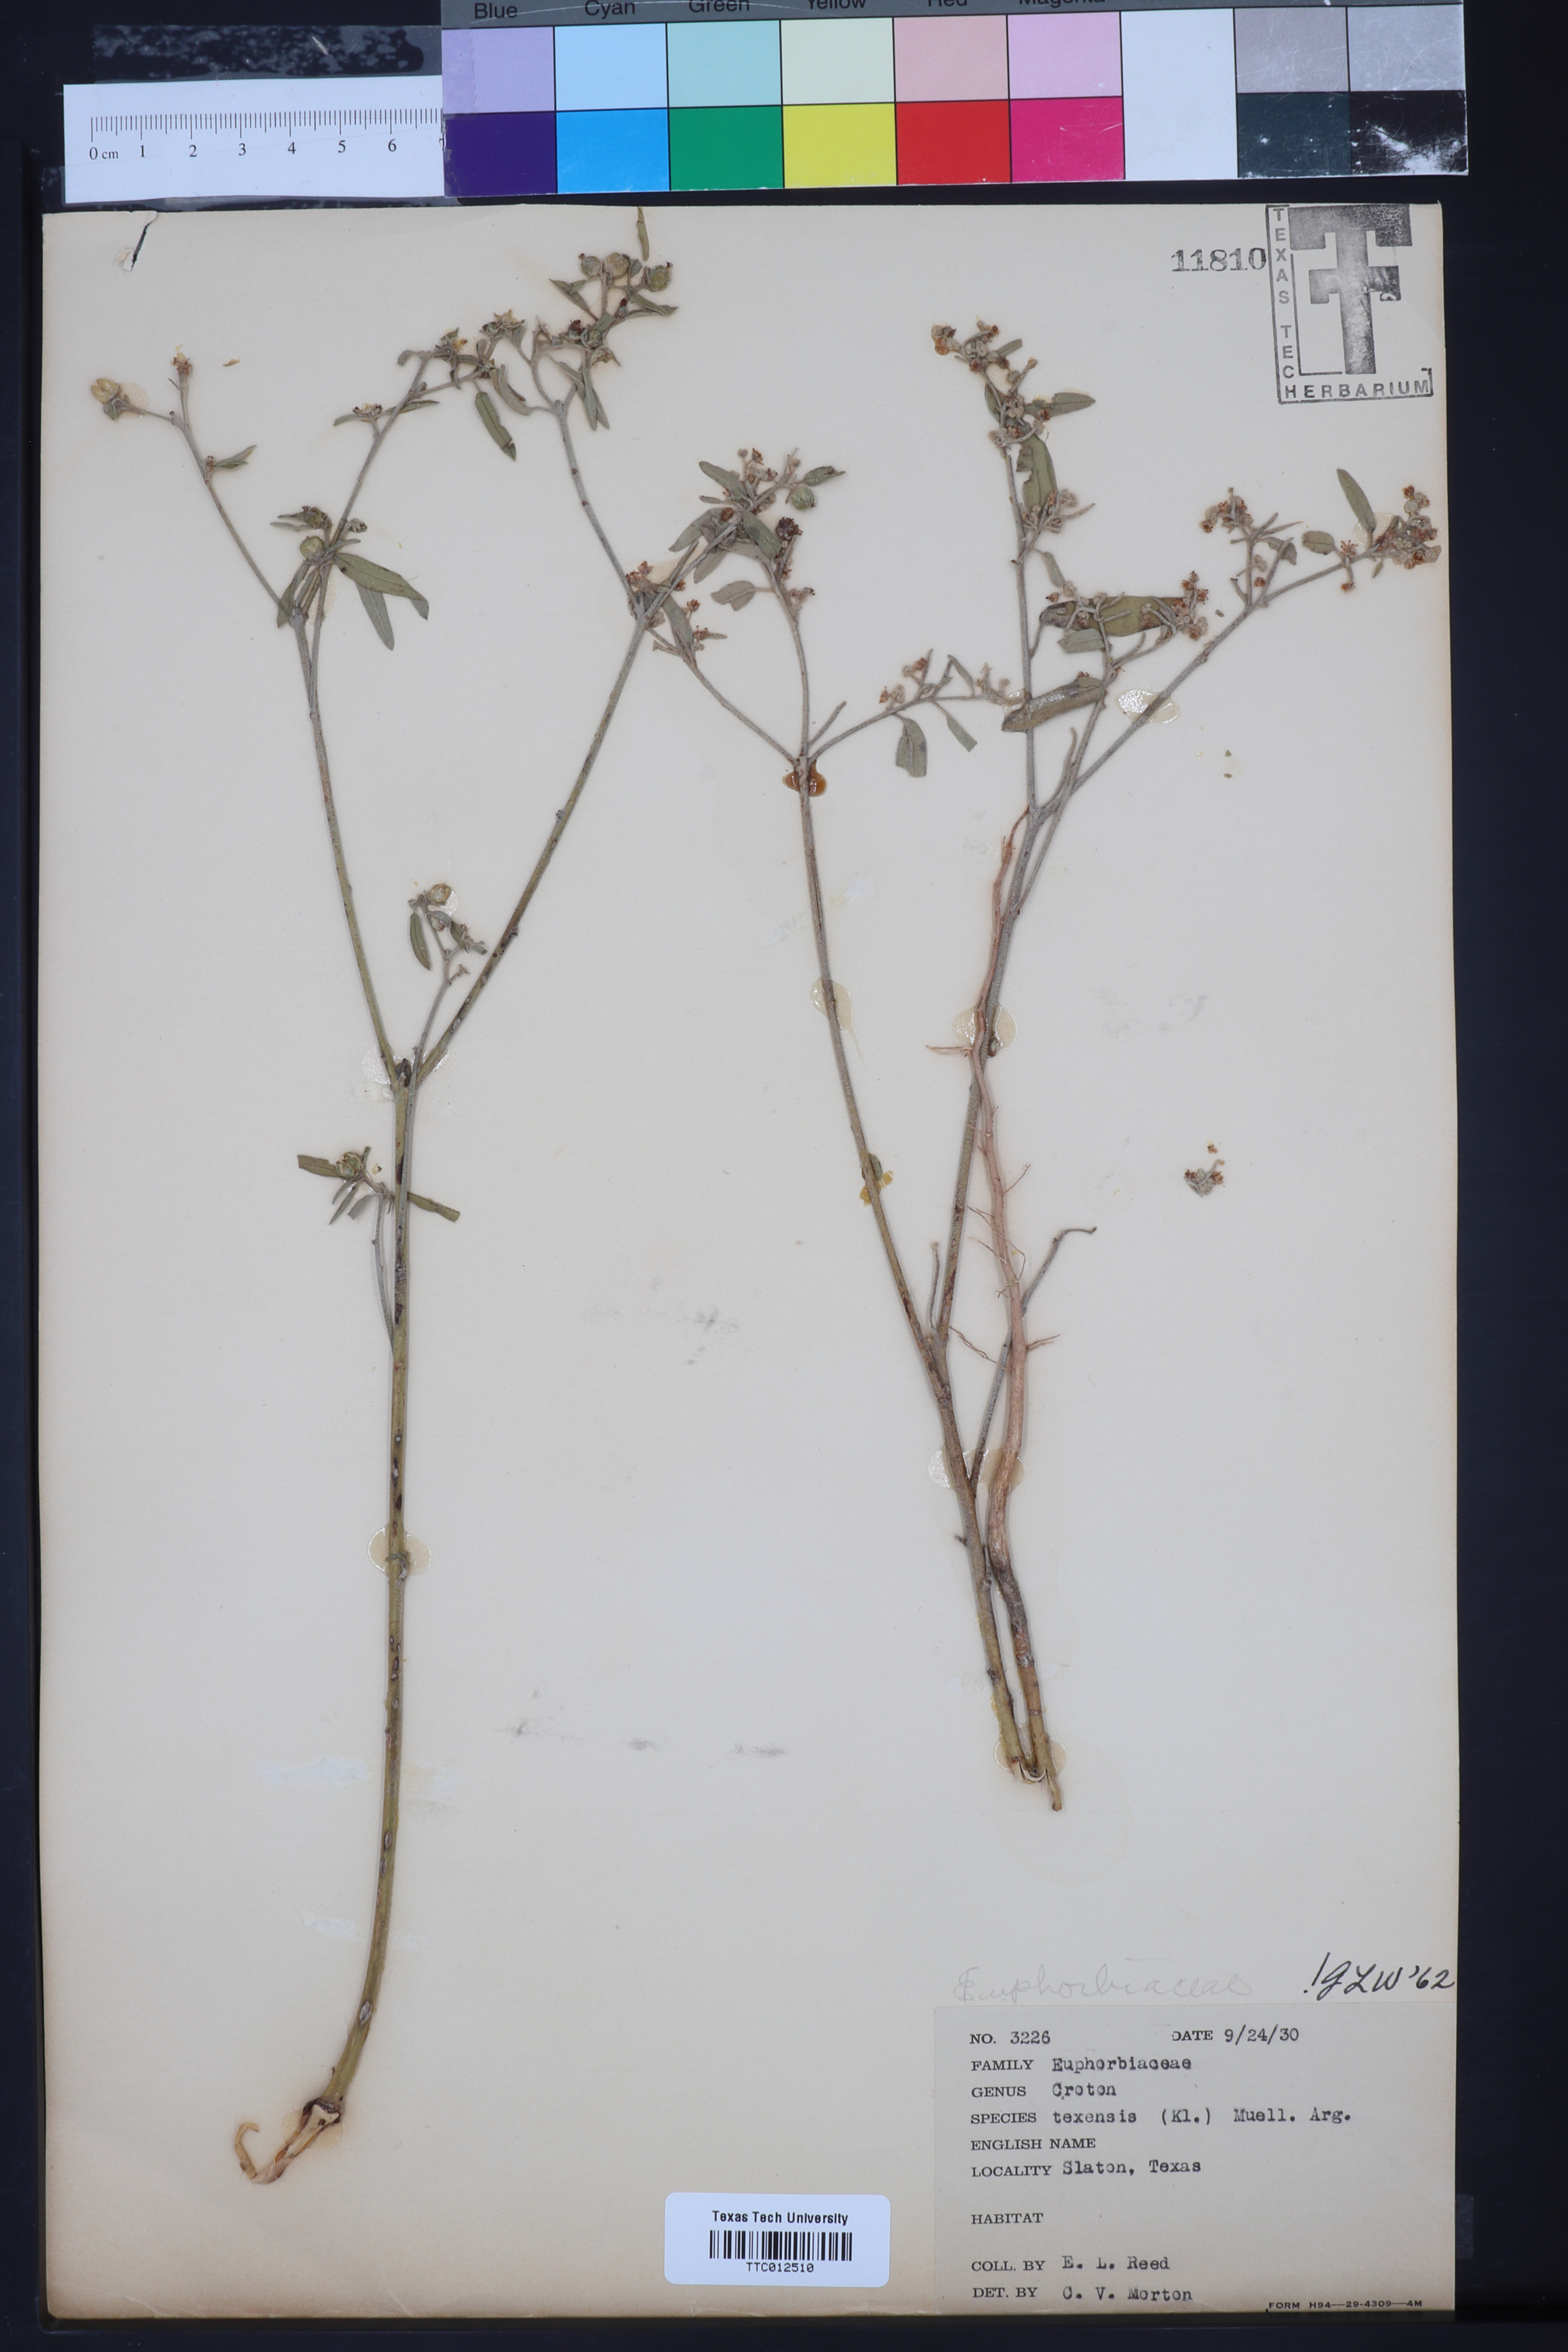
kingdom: Plantae
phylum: Tracheophyta
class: Magnoliopsida
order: Malpighiales
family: Euphorbiaceae
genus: Croton
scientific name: Croton texensis
